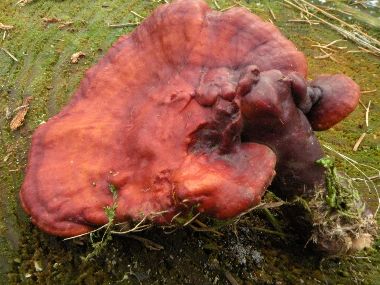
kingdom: Fungi
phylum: Basidiomycota
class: Agaricomycetes
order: Polyporales
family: Polyporaceae
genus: Ganoderma
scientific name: Ganoderma lucidum
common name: skinnende lakporesvamp
